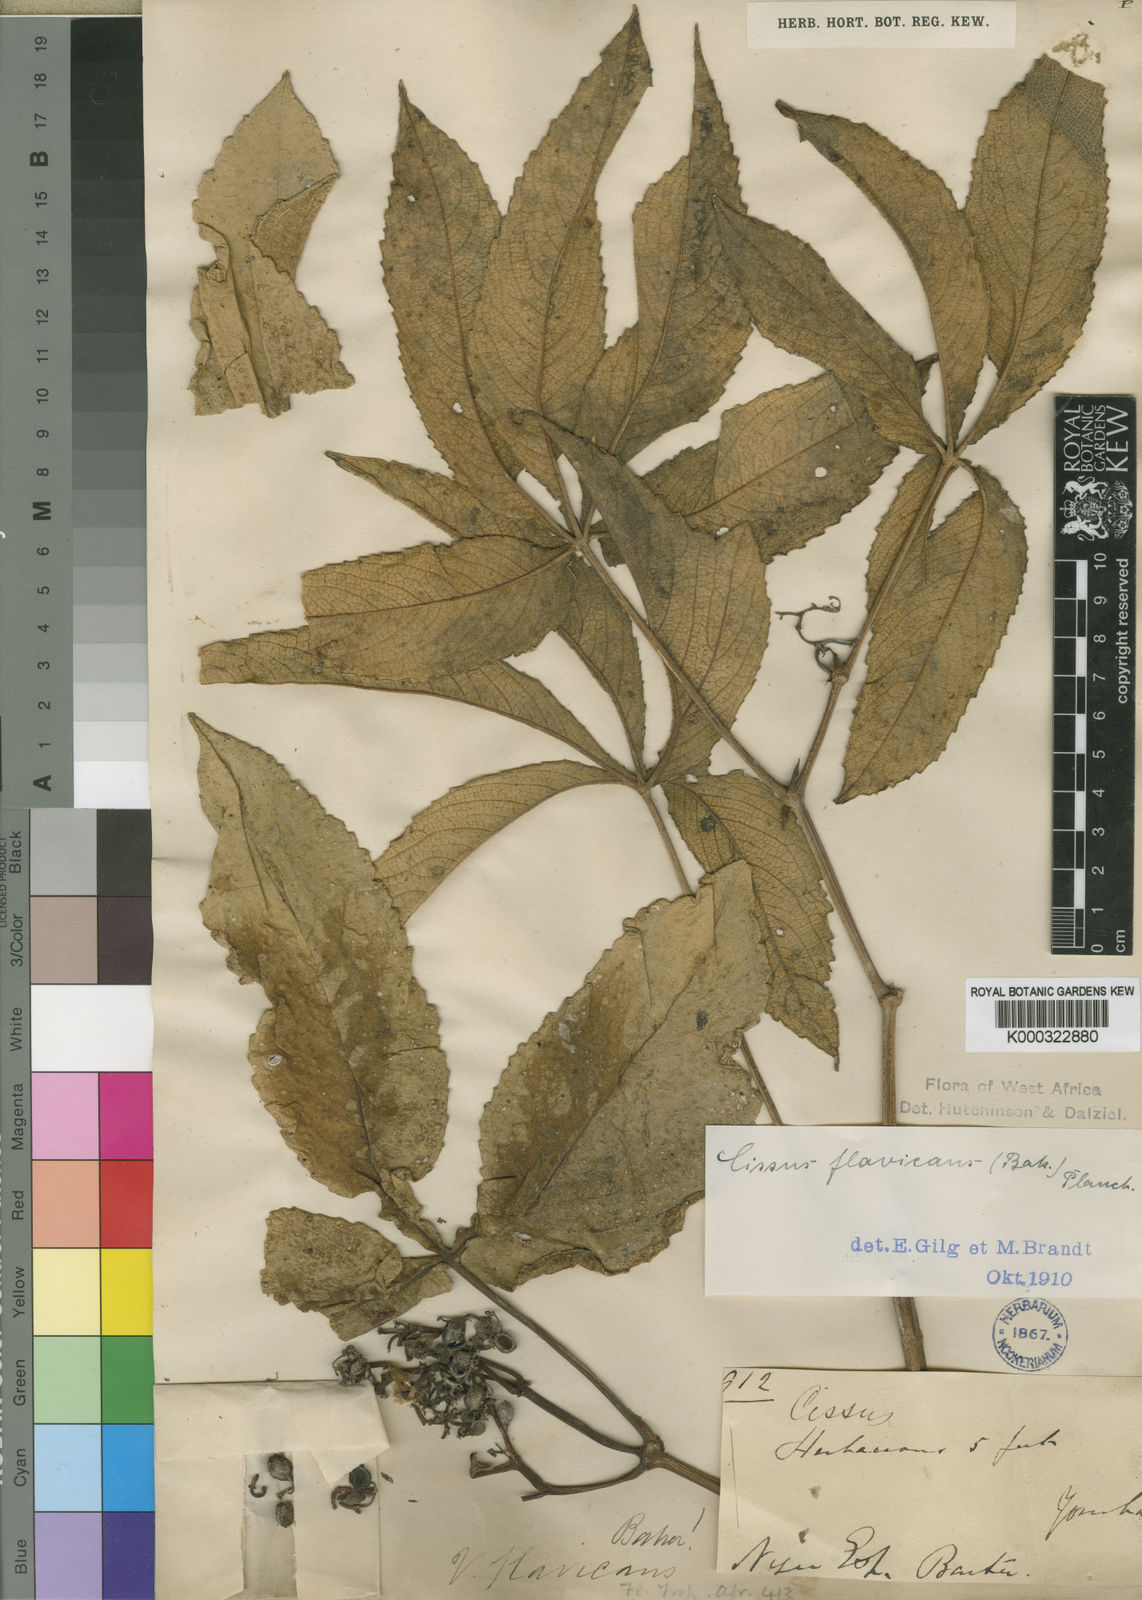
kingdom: Plantae
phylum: Tracheophyta
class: Magnoliopsida
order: Vitales
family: Vitaceae
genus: Cyphostemma
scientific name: Cyphostemma flavicans
